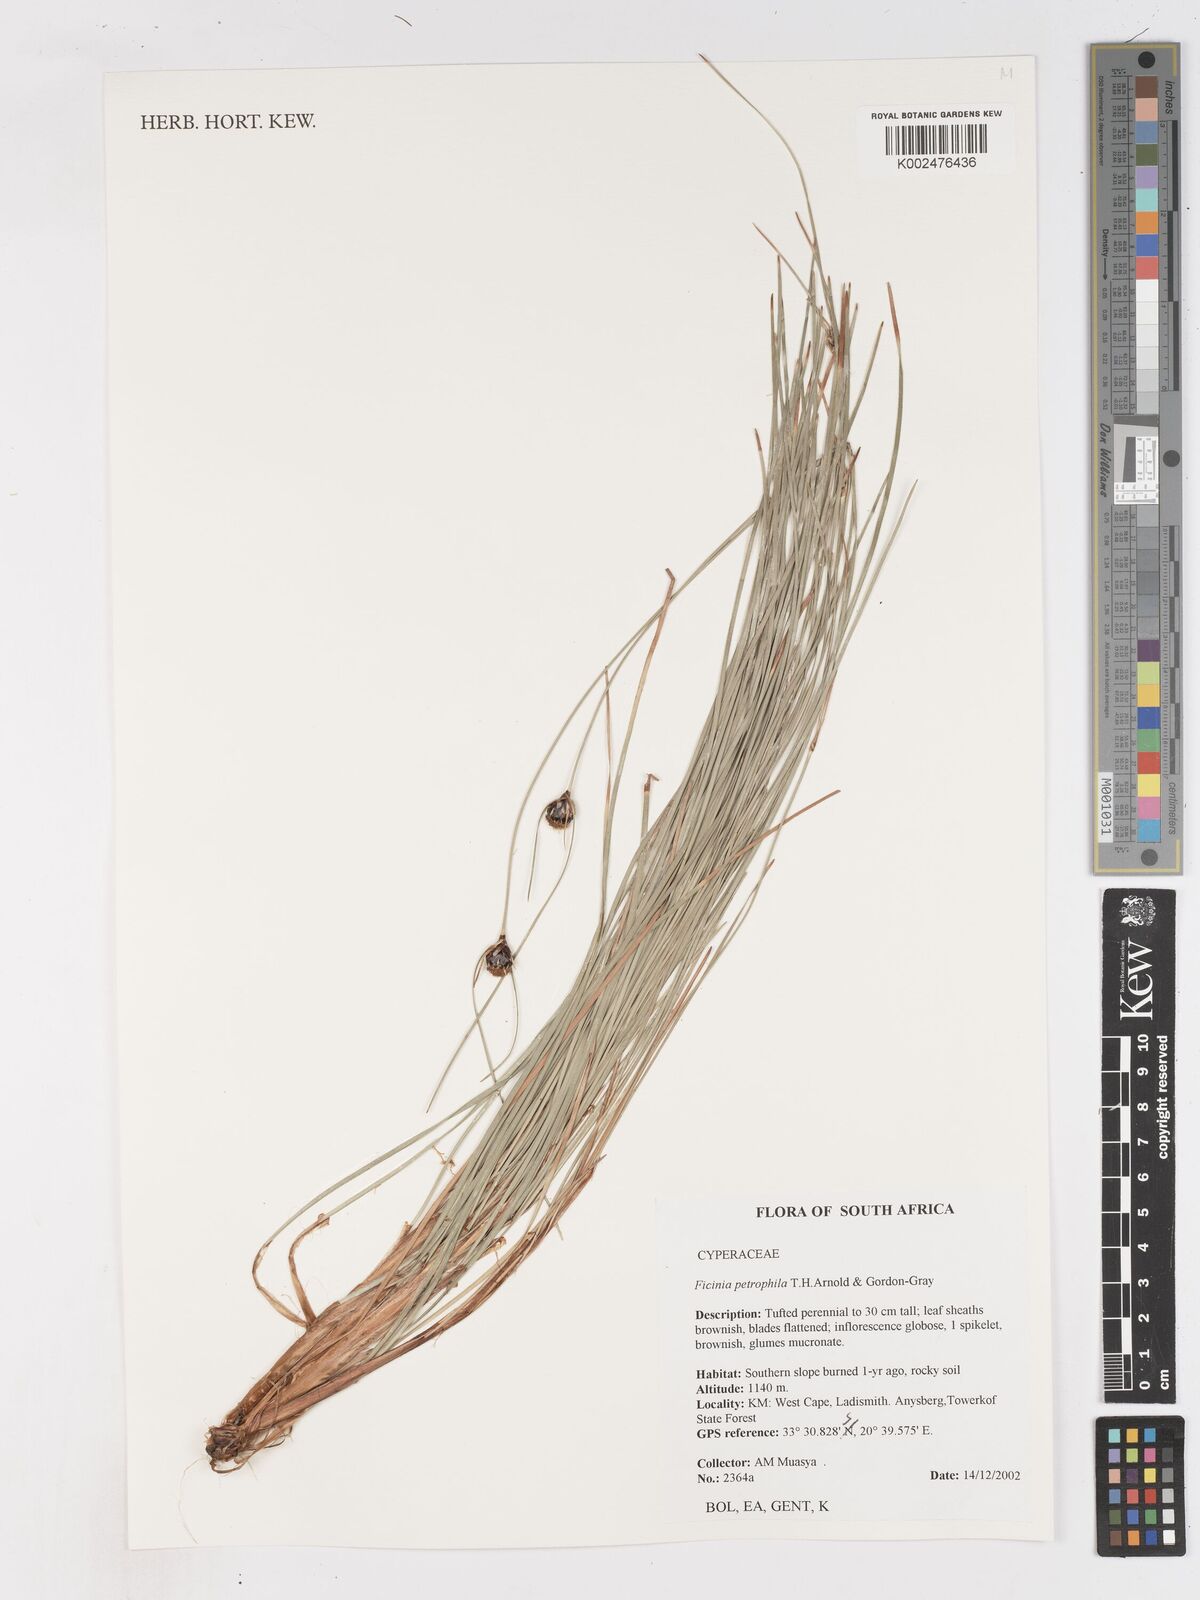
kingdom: Plantae
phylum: Tracheophyta
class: Liliopsida
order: Poales
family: Cyperaceae
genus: Ficinia
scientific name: Ficinia petrophylla
